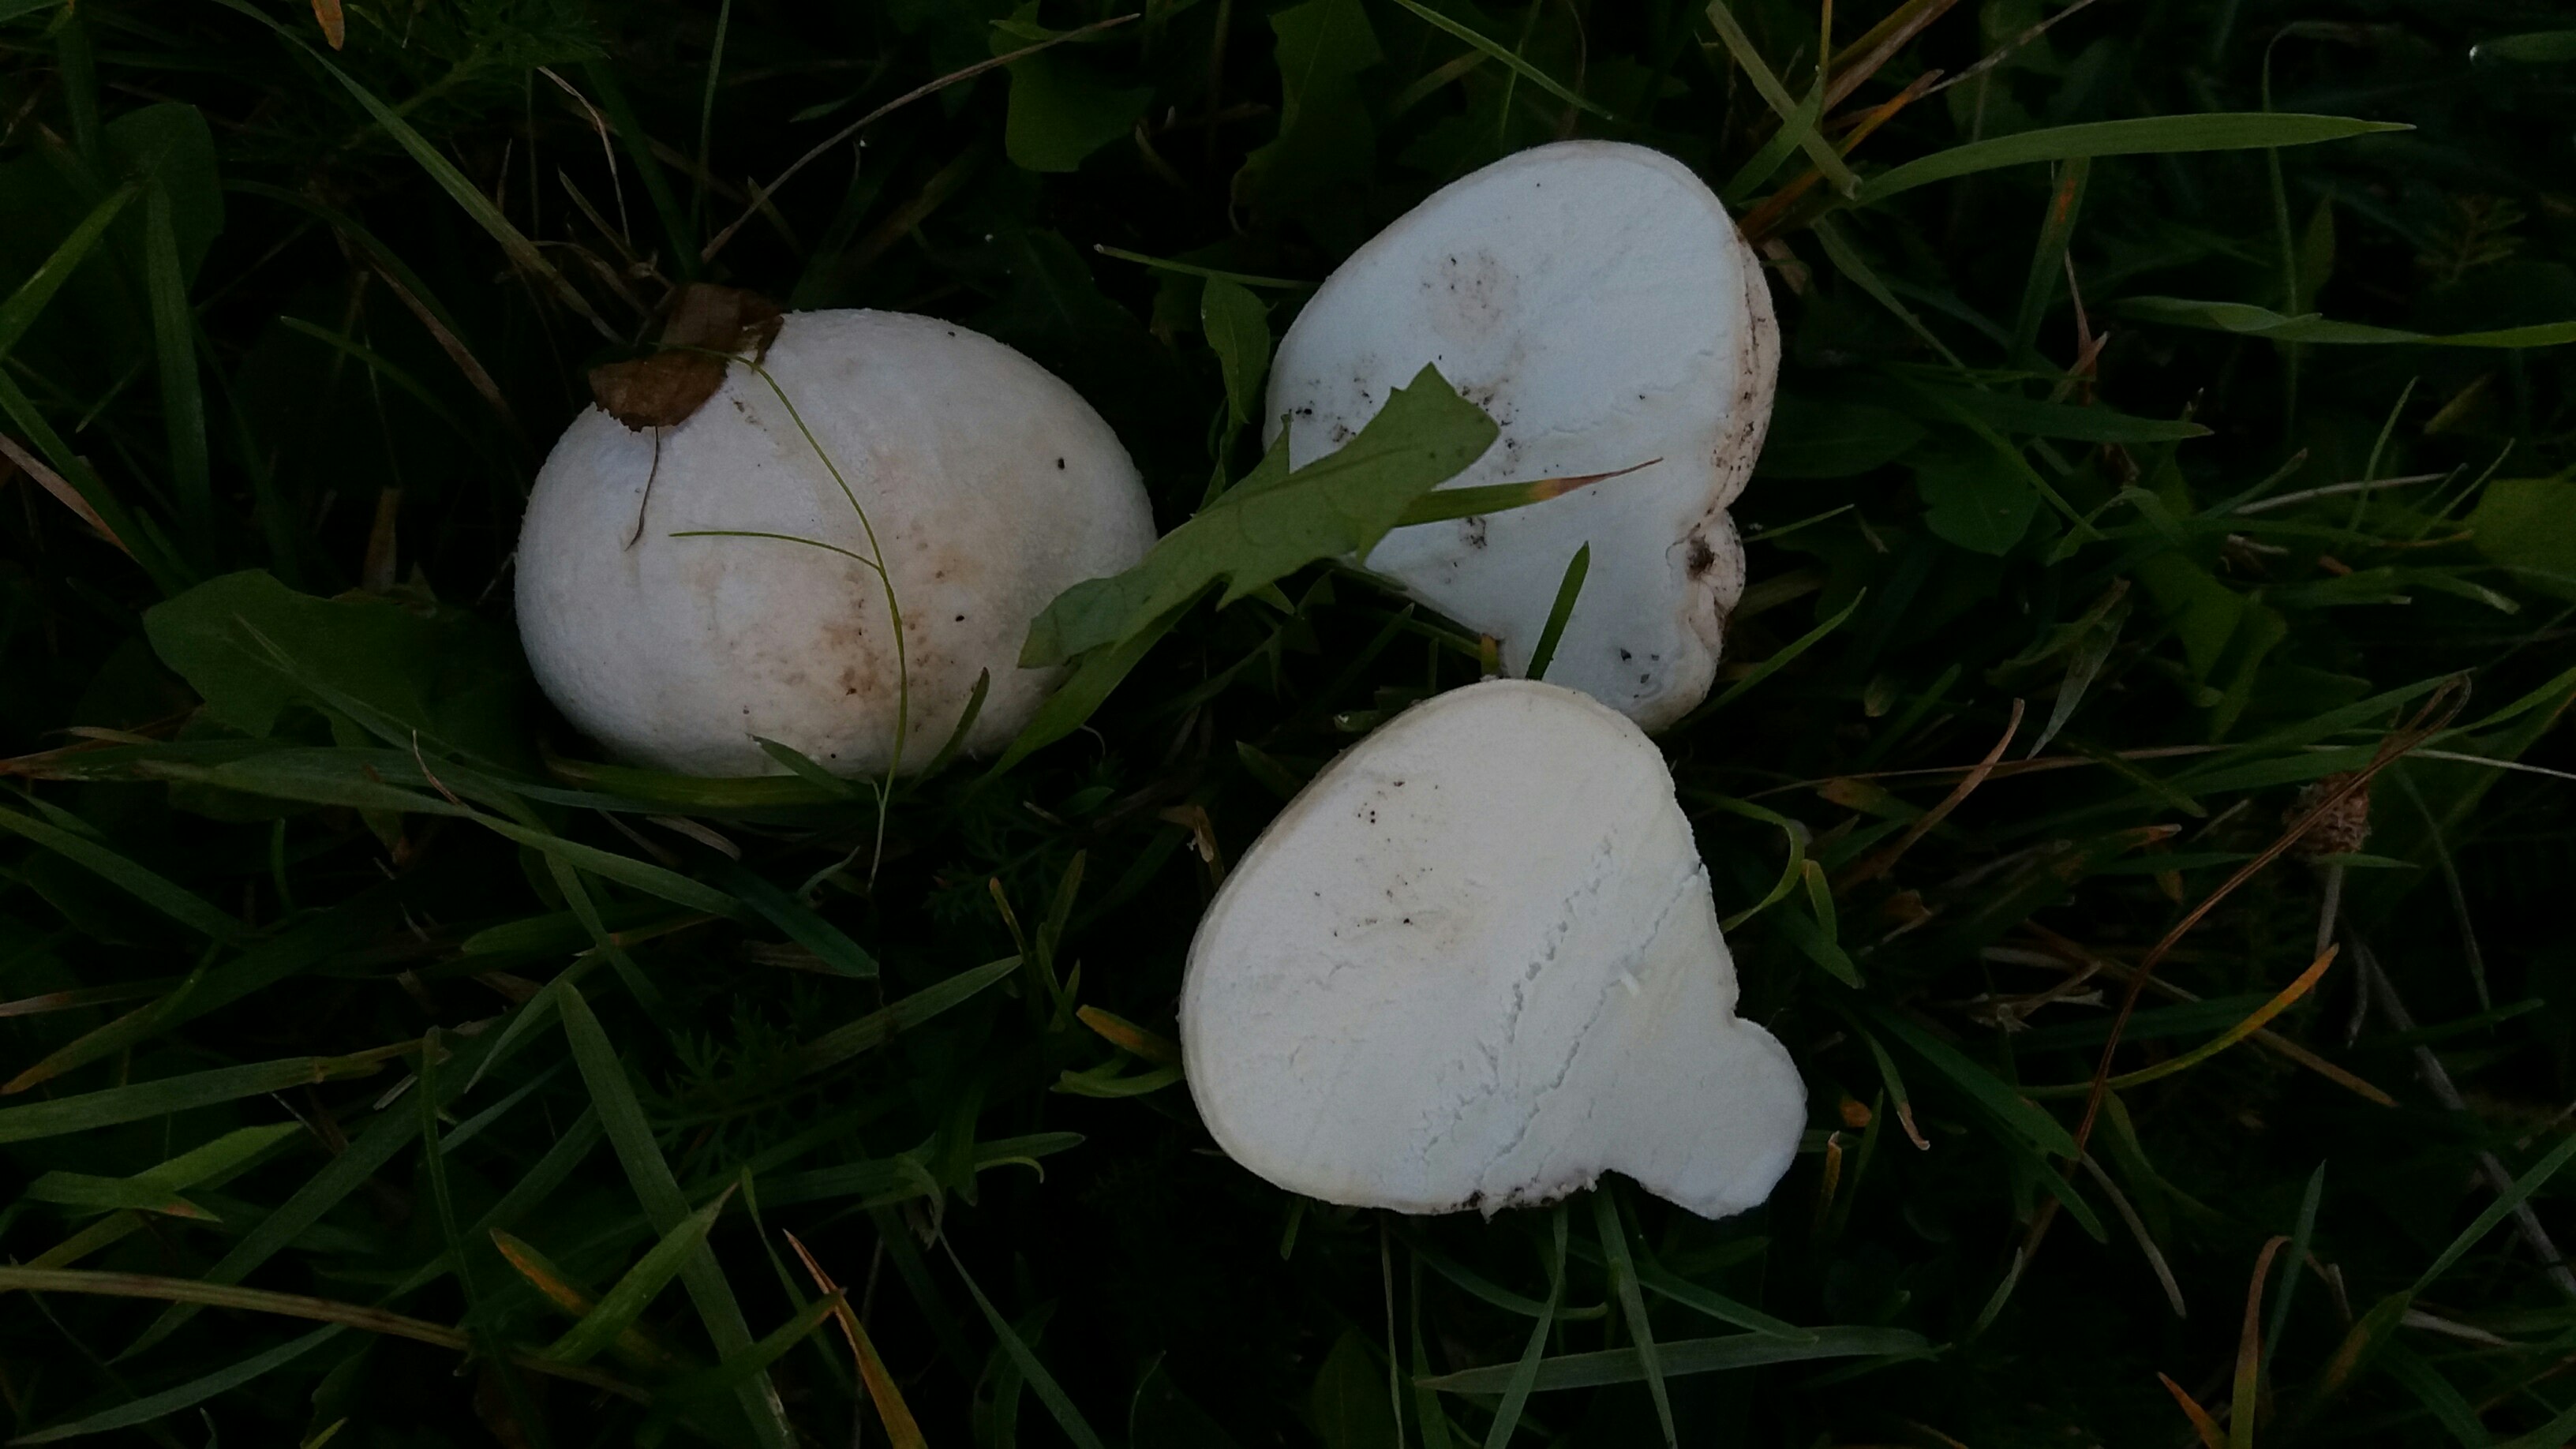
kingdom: Fungi
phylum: Basidiomycota
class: Agaricomycetes
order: Agaricales
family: Lycoperdaceae
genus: Calvatia
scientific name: Calvatia gigantea
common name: kæmpestøvbold
